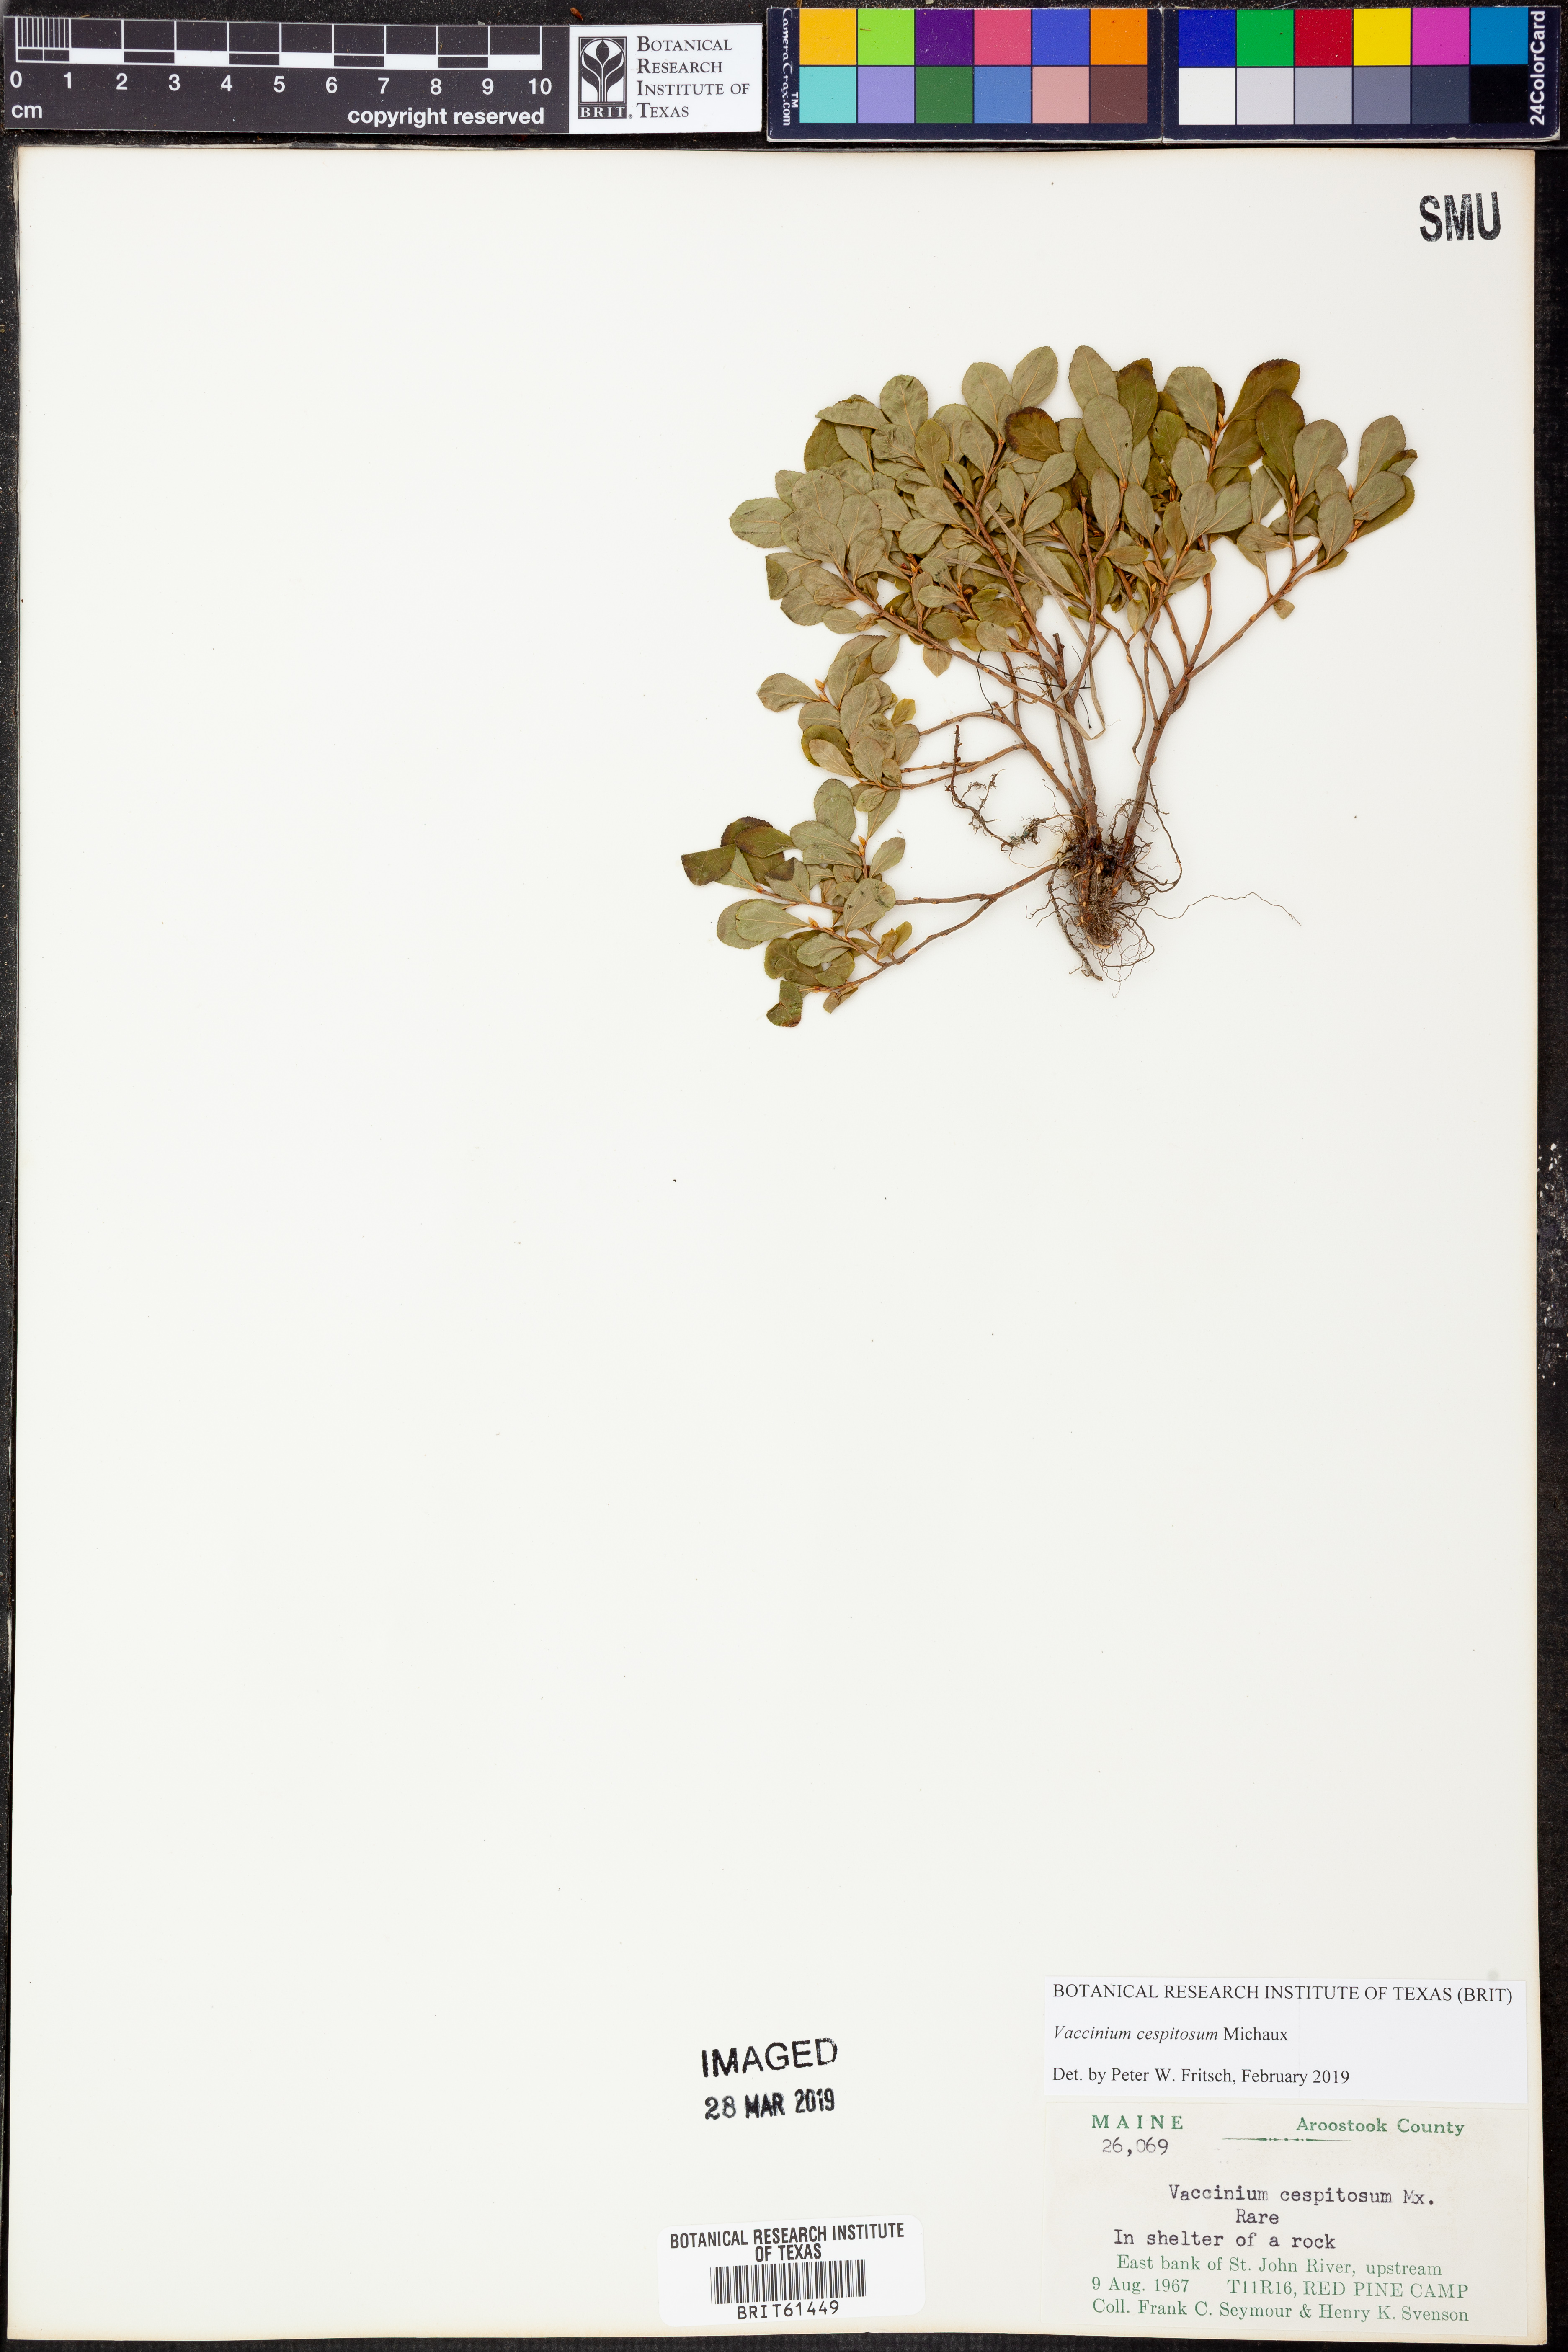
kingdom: Plantae
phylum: Tracheophyta
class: Magnoliopsida
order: Ericales
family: Ericaceae
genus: Vaccinium
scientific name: Vaccinium cespitosum
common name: Dwarf bilberry
